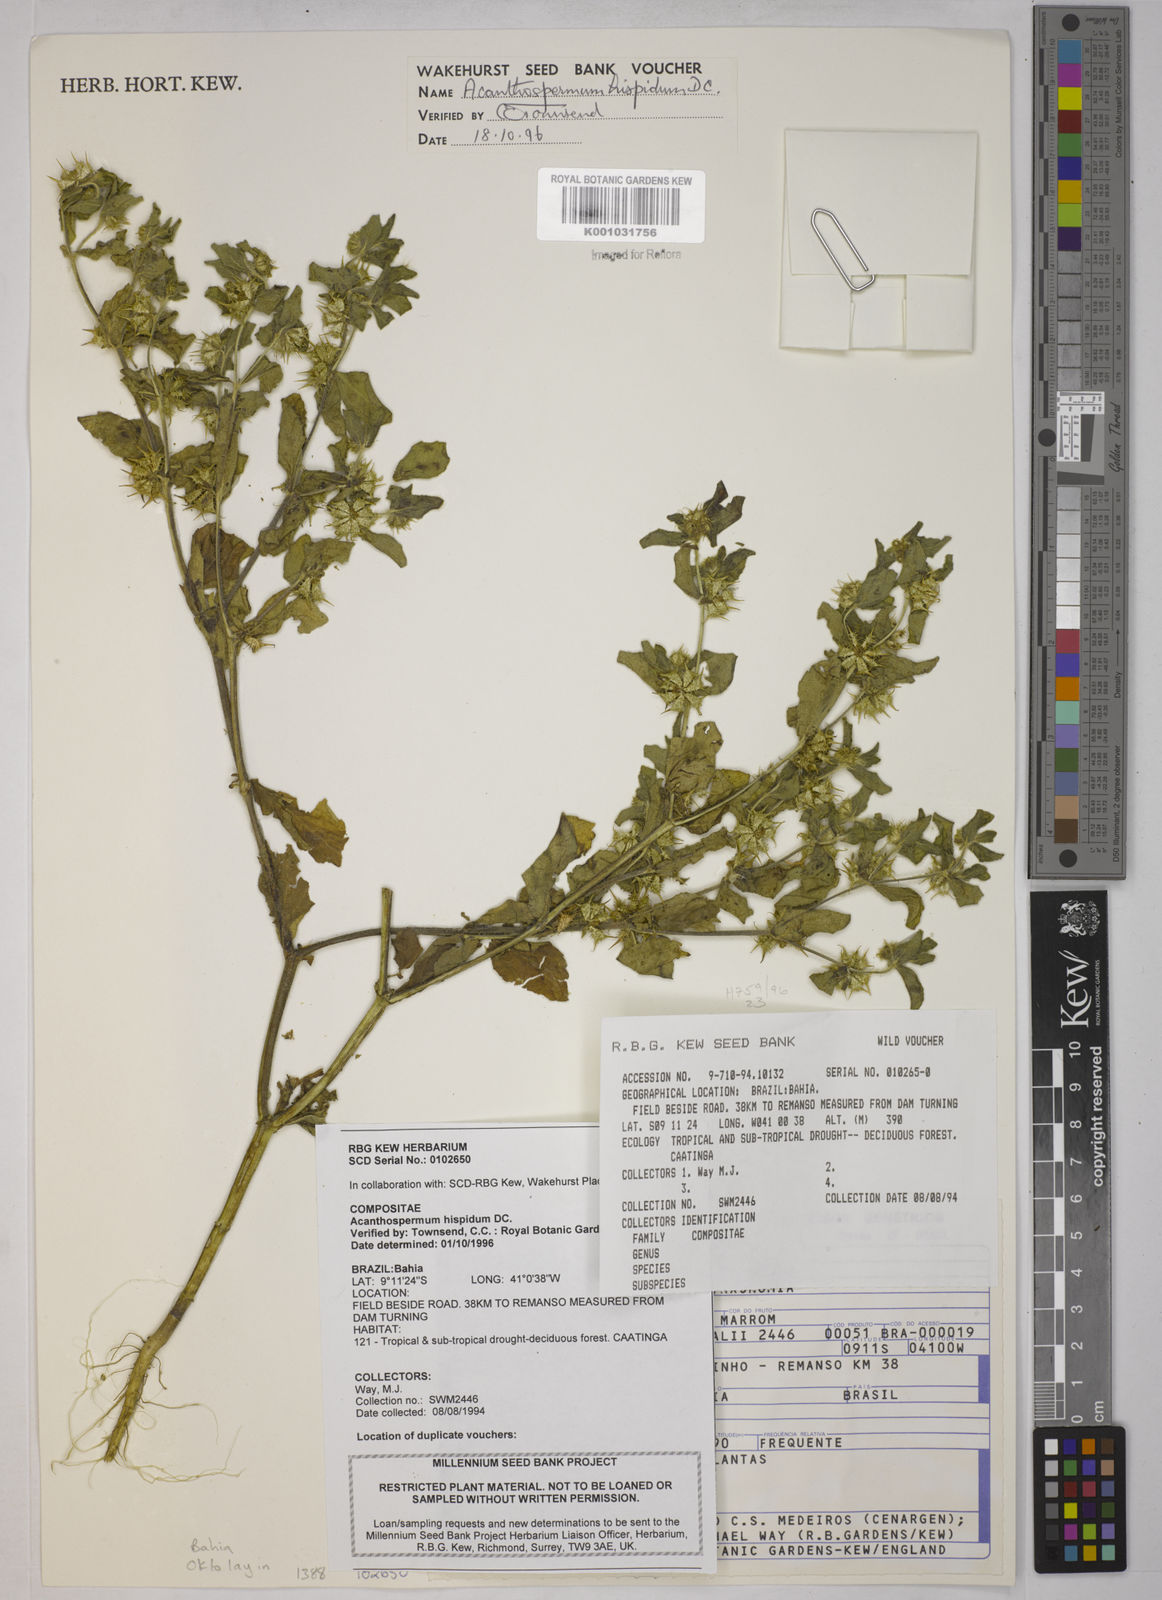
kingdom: Plantae
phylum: Tracheophyta
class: Magnoliopsida
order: Asterales
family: Asteraceae
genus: Acanthospermum
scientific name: Acanthospermum hispidum
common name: Hispid starbur
